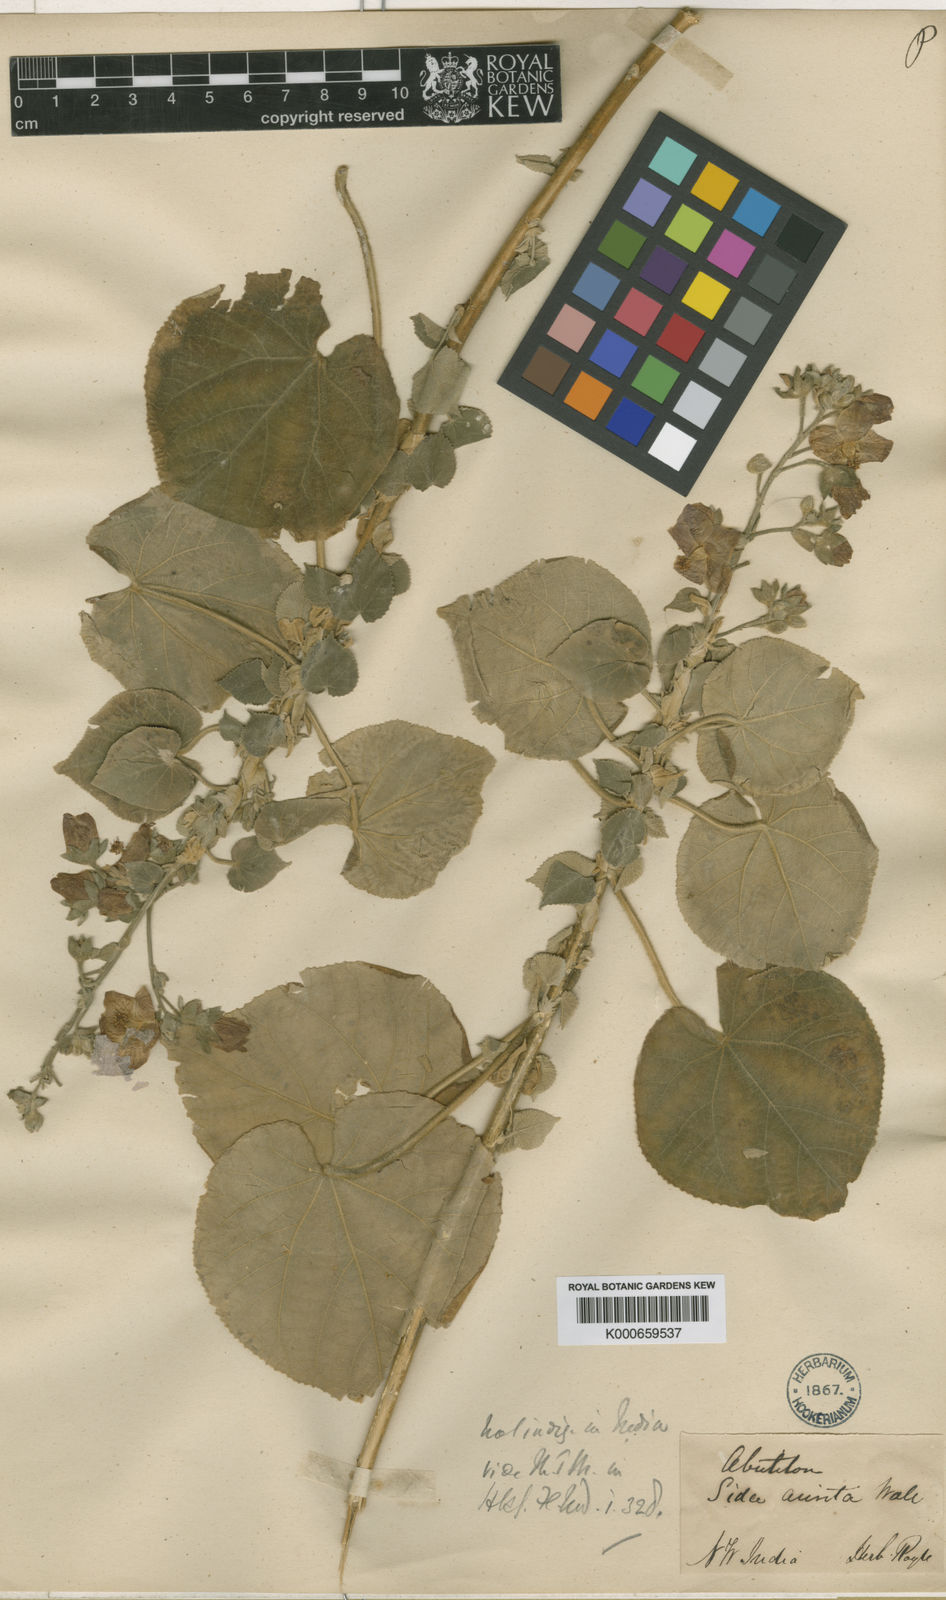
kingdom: Plantae
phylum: Tracheophyta
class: Magnoliopsida
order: Malvales
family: Malvaceae
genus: Abutilon
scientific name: Abutilon auritum
